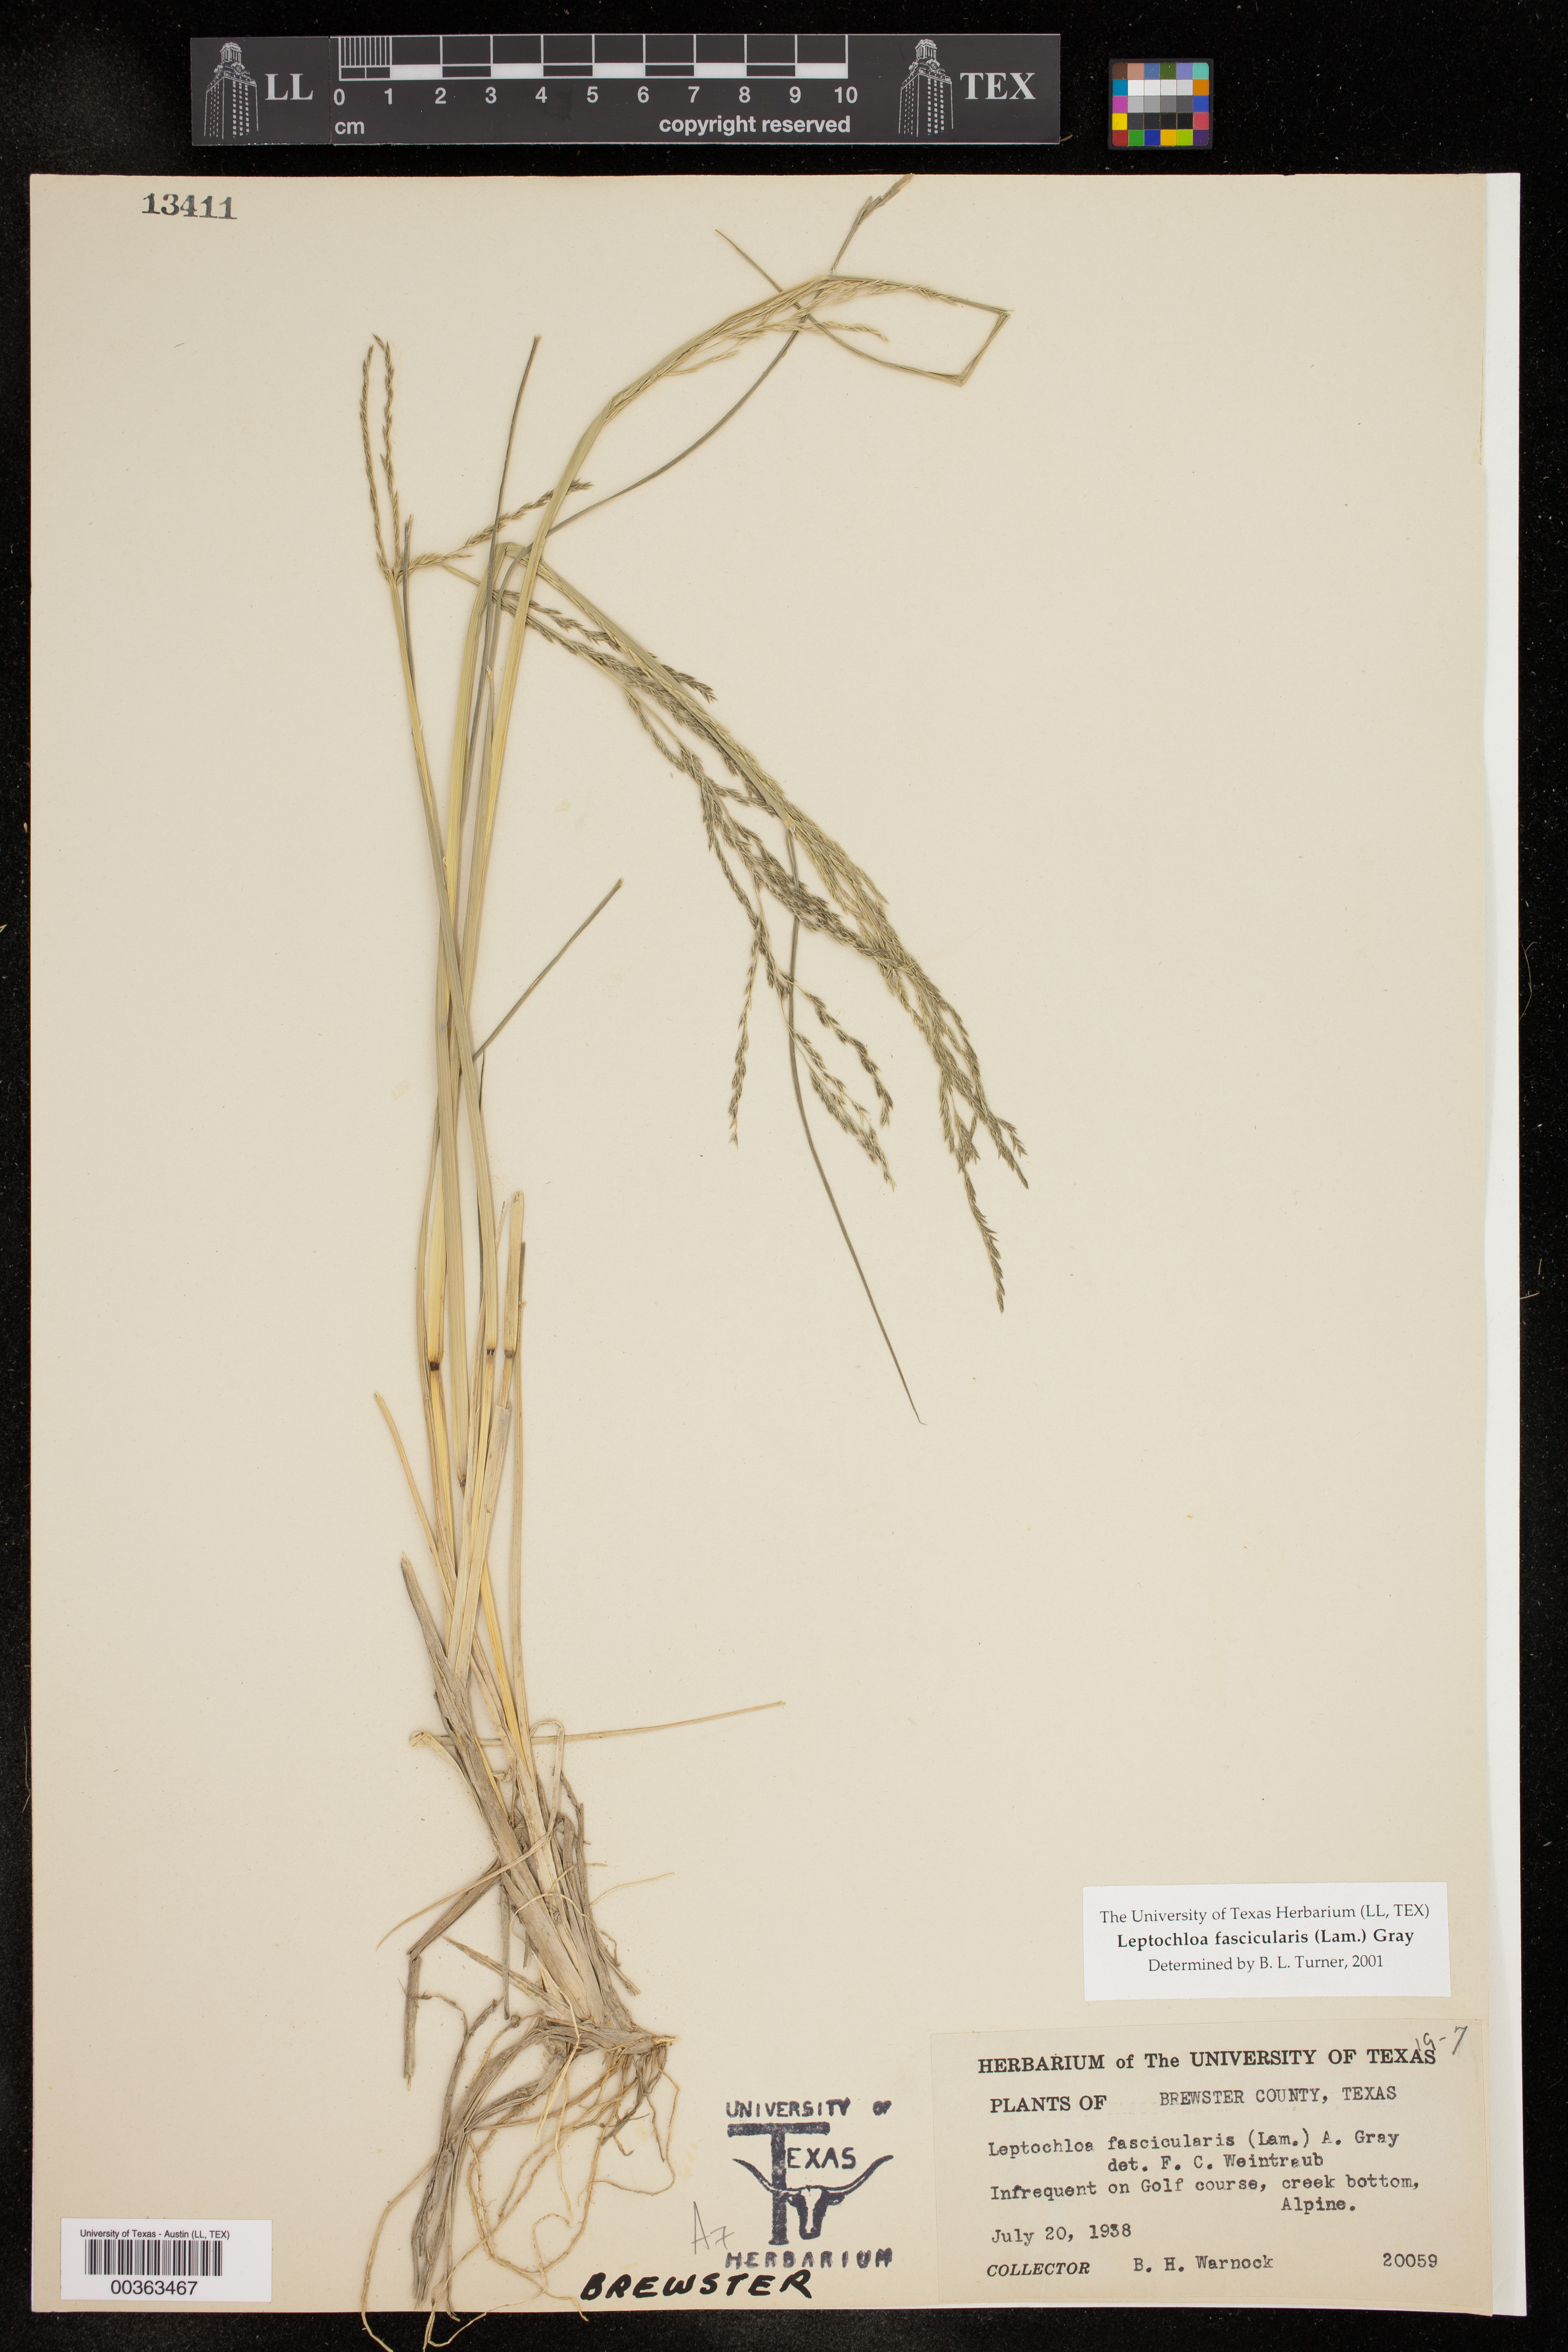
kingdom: Plantae
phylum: Tracheophyta
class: Liliopsida
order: Poales
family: Poaceae
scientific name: Poaceae
